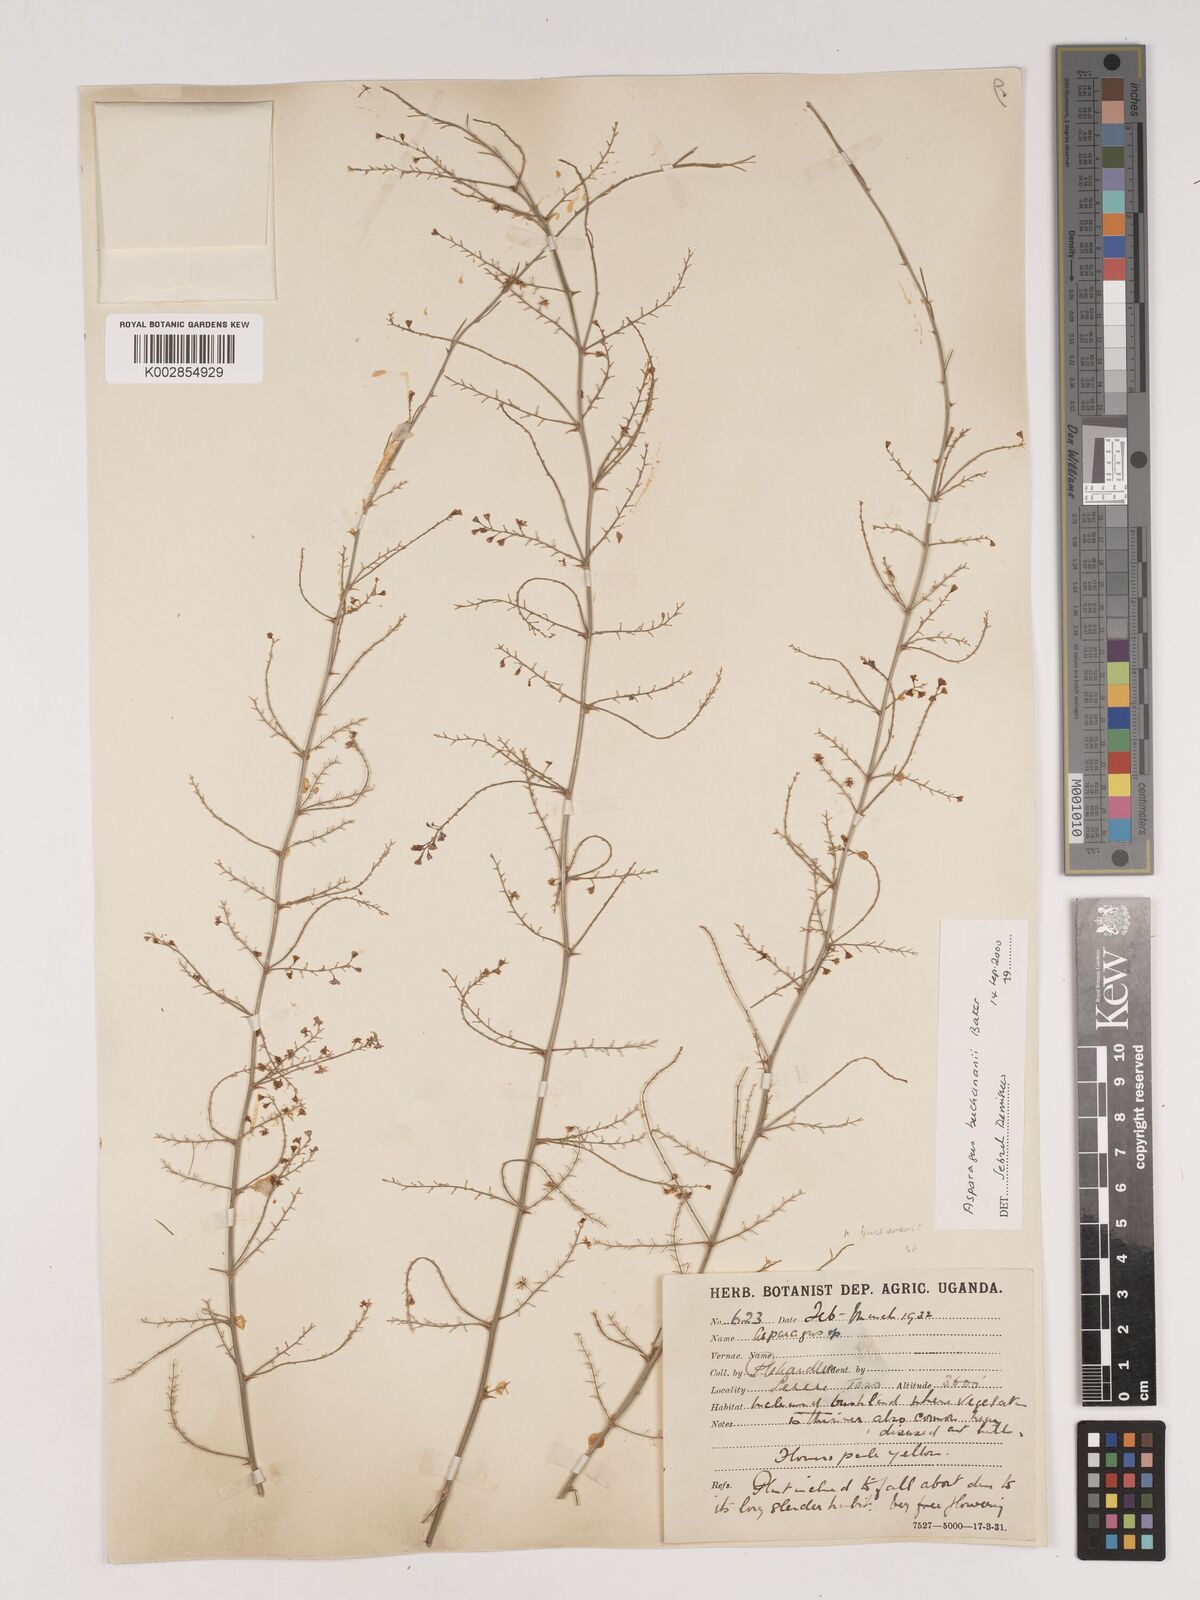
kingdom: Plantae
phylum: Tracheophyta
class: Liliopsida
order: Asparagales
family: Asparagaceae
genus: Asparagus
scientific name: Asparagus buchananii
